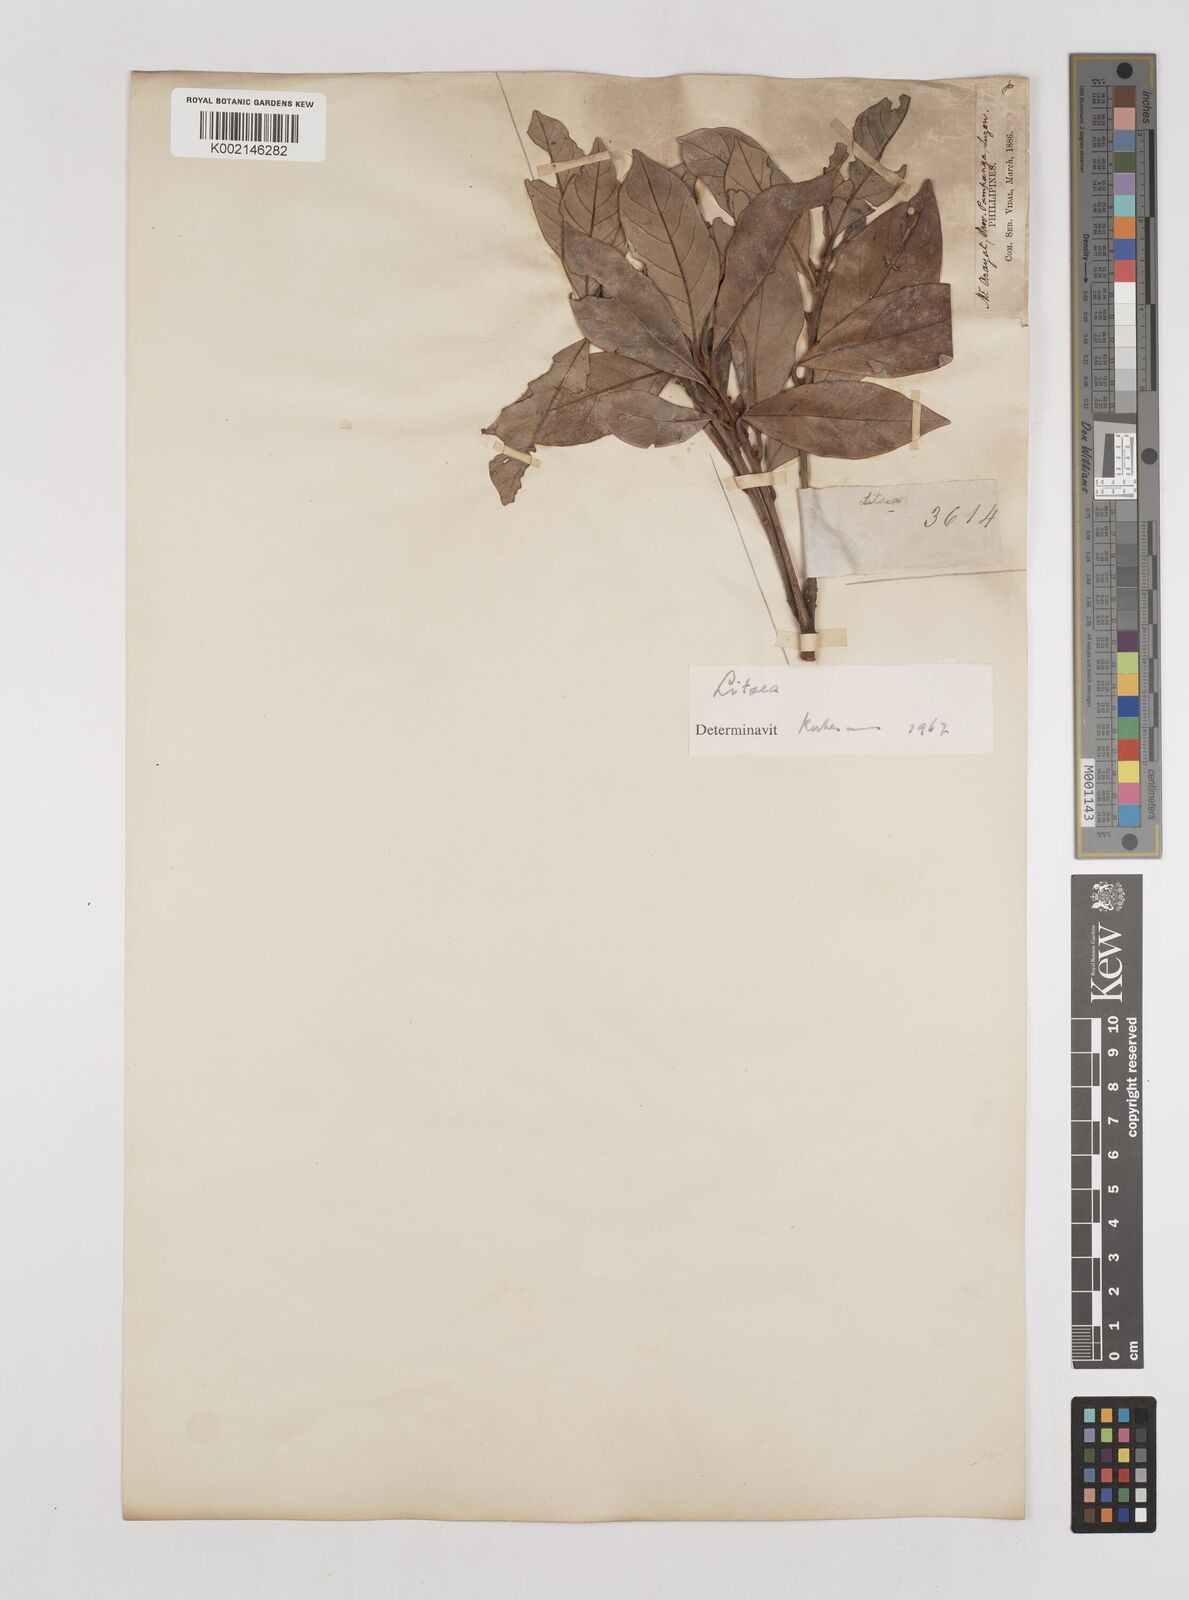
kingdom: Plantae
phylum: Tracheophyta
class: Magnoliopsida
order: Laurales
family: Lauraceae
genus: Litsea
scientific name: Litsea
